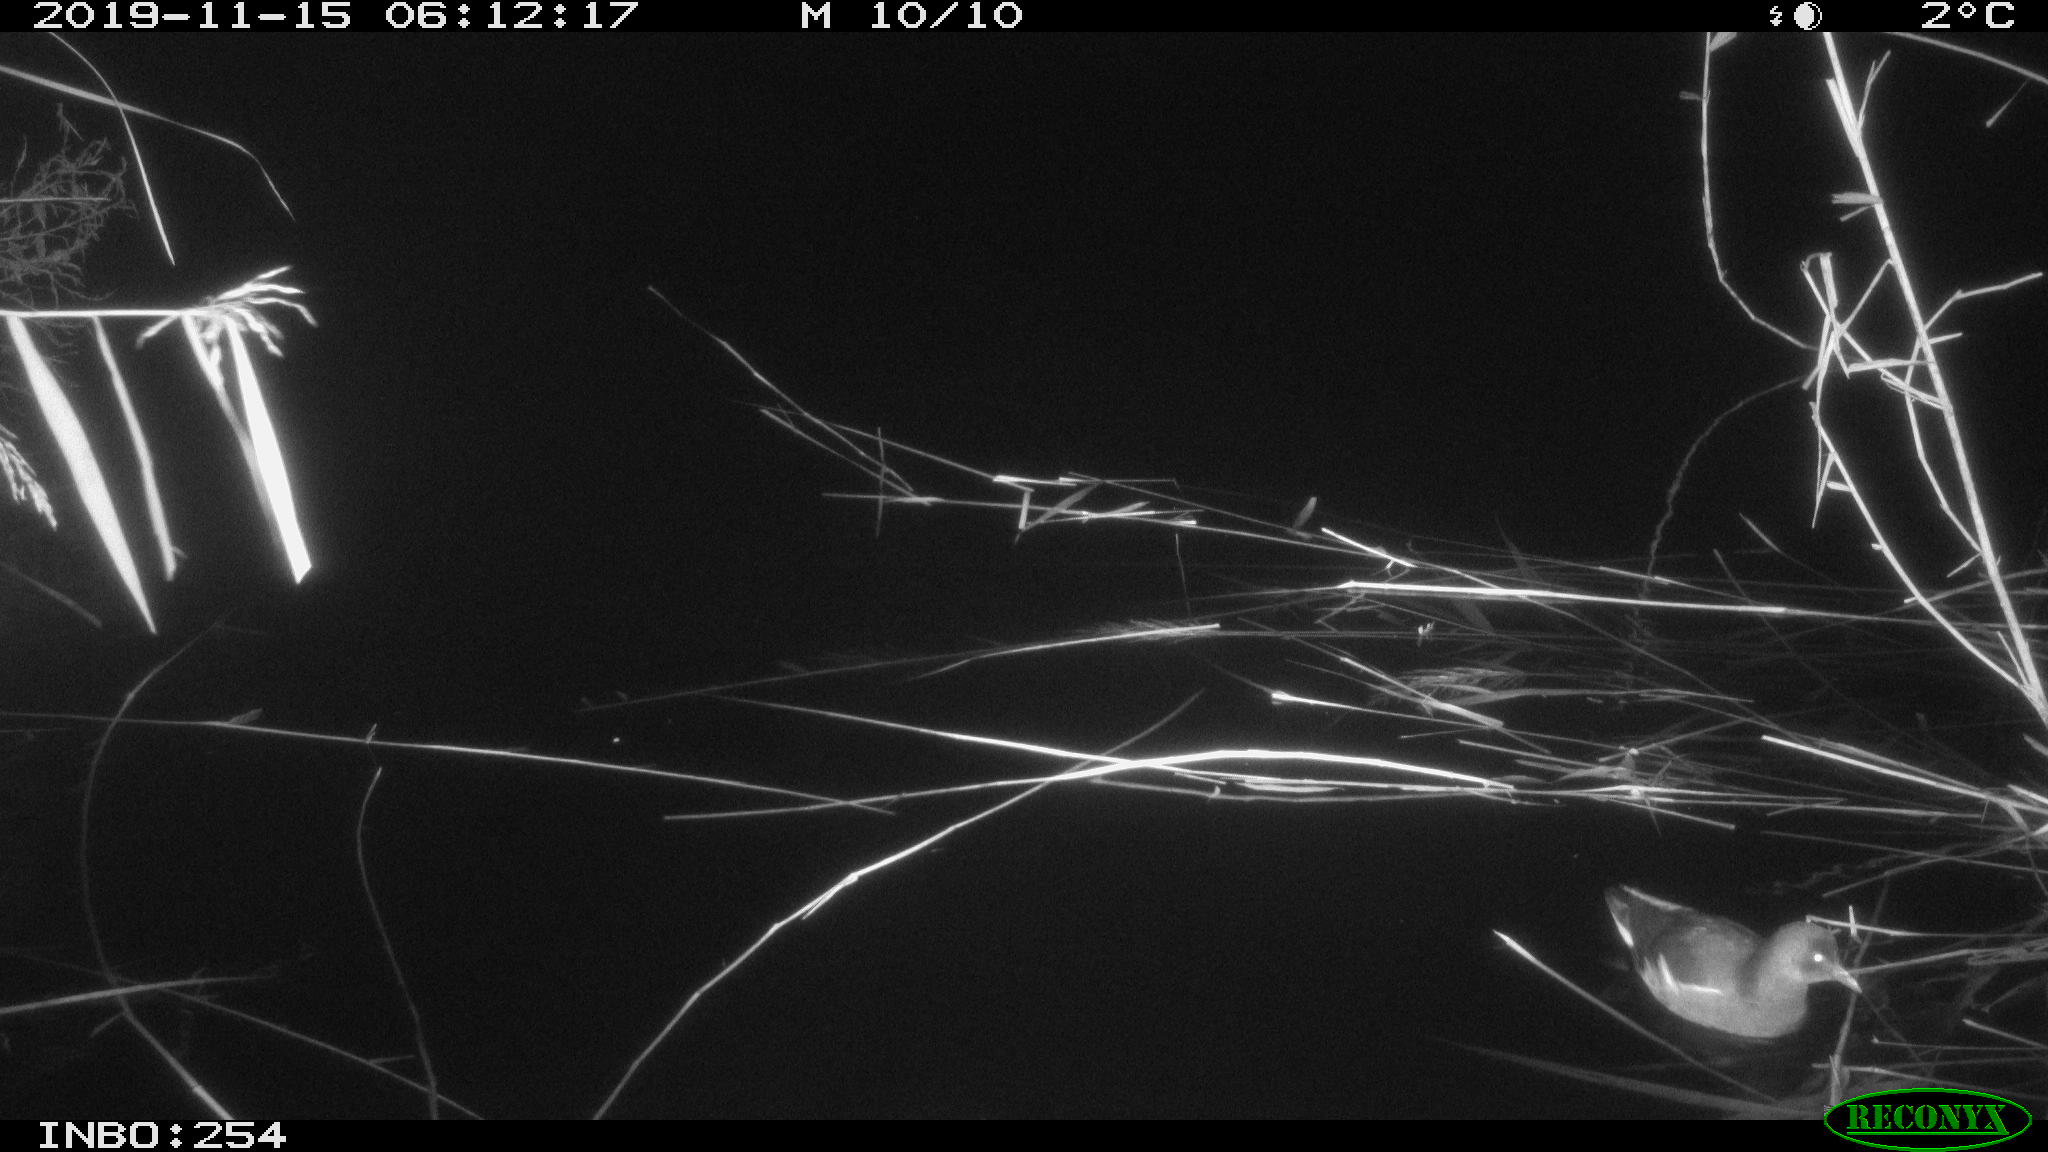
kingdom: Animalia
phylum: Chordata
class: Aves
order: Gruiformes
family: Rallidae
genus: Gallinula
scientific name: Gallinula chloropus
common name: Common moorhen
